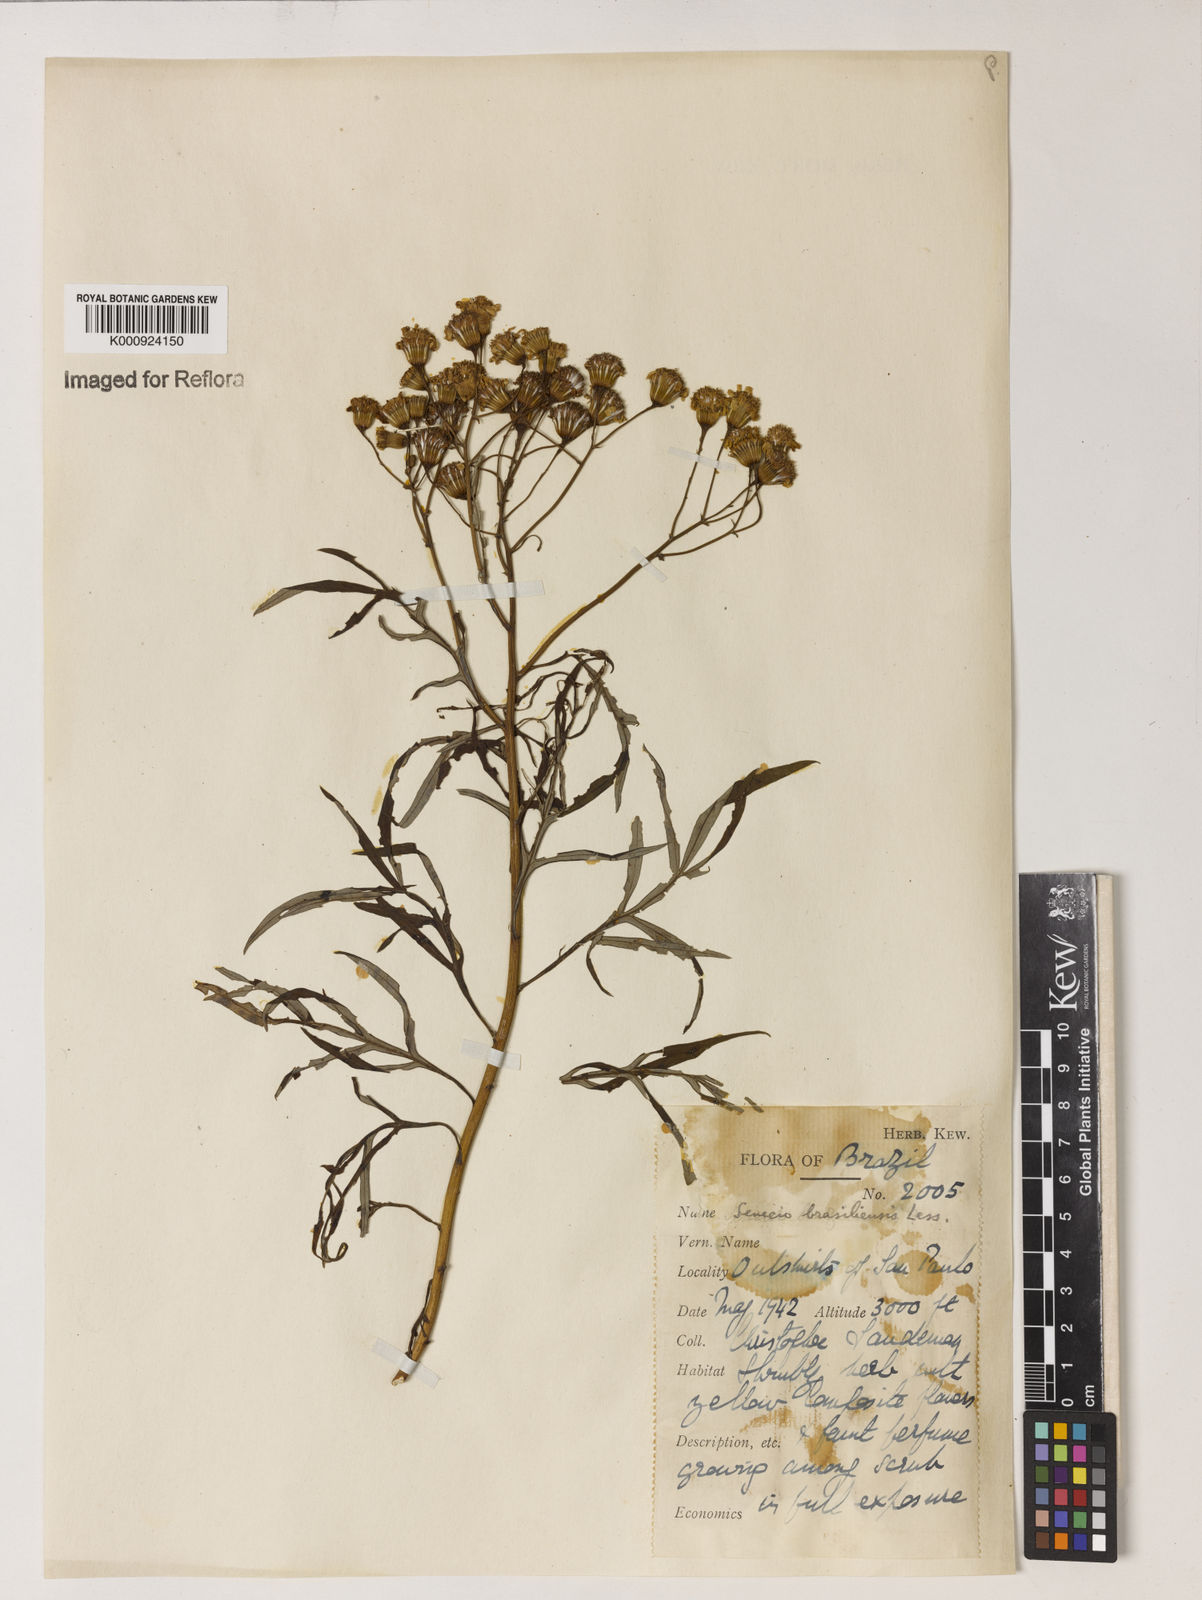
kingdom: Plantae
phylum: Tracheophyta
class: Magnoliopsida
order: Asterales
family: Asteraceae
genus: Senecio
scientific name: Senecio brasiliensis
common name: Hemp-leaf ragwort
